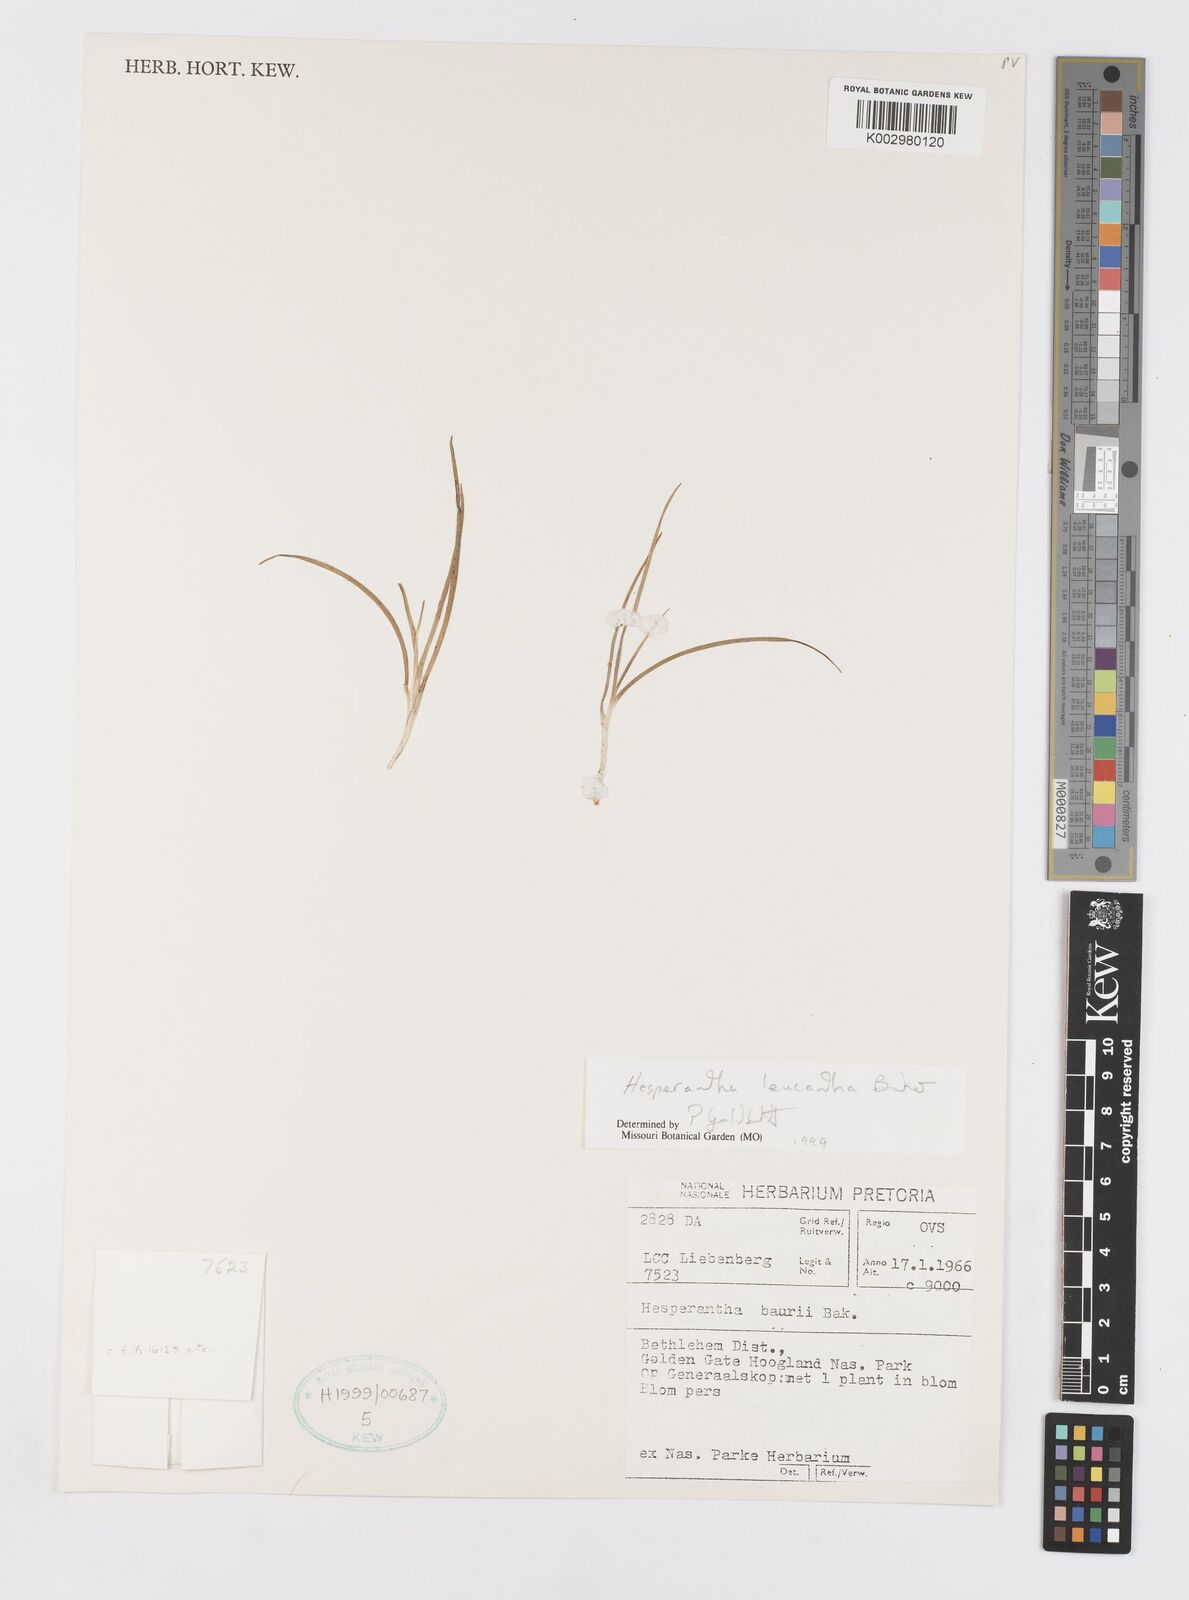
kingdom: Plantae
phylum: Tracheophyta
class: Liliopsida
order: Asparagales
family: Iridaceae
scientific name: Iridaceae
